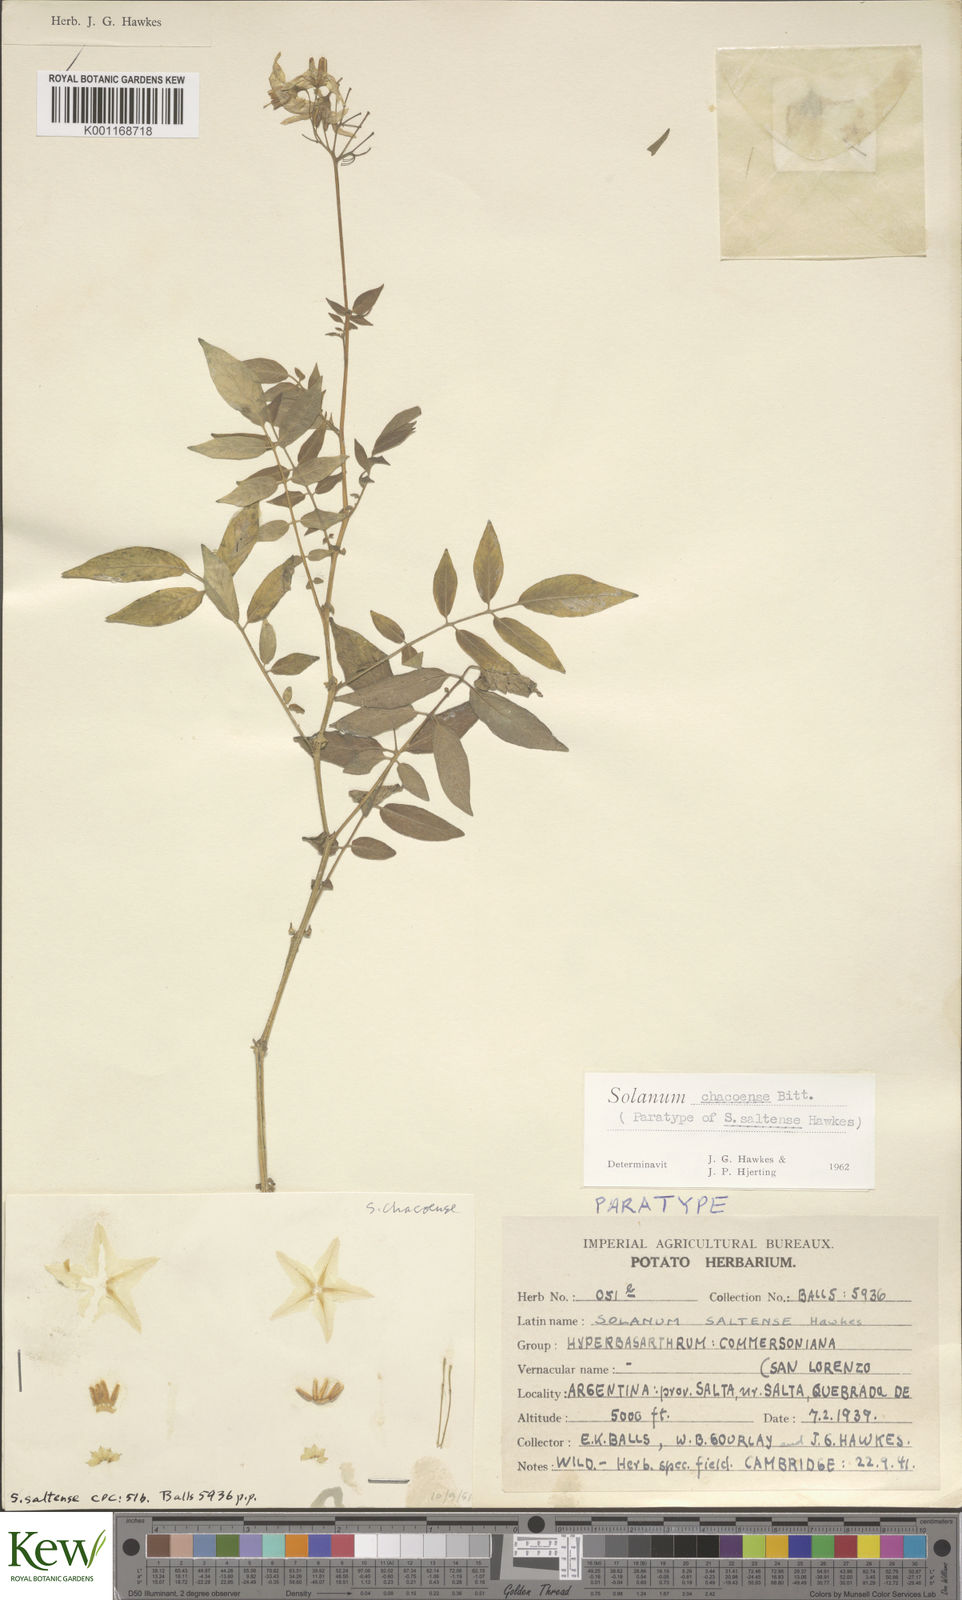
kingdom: Plantae
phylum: Tracheophyta
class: Magnoliopsida
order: Solanales
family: Solanaceae
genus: Solanum
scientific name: Solanum chacoense
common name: Chaco potato
